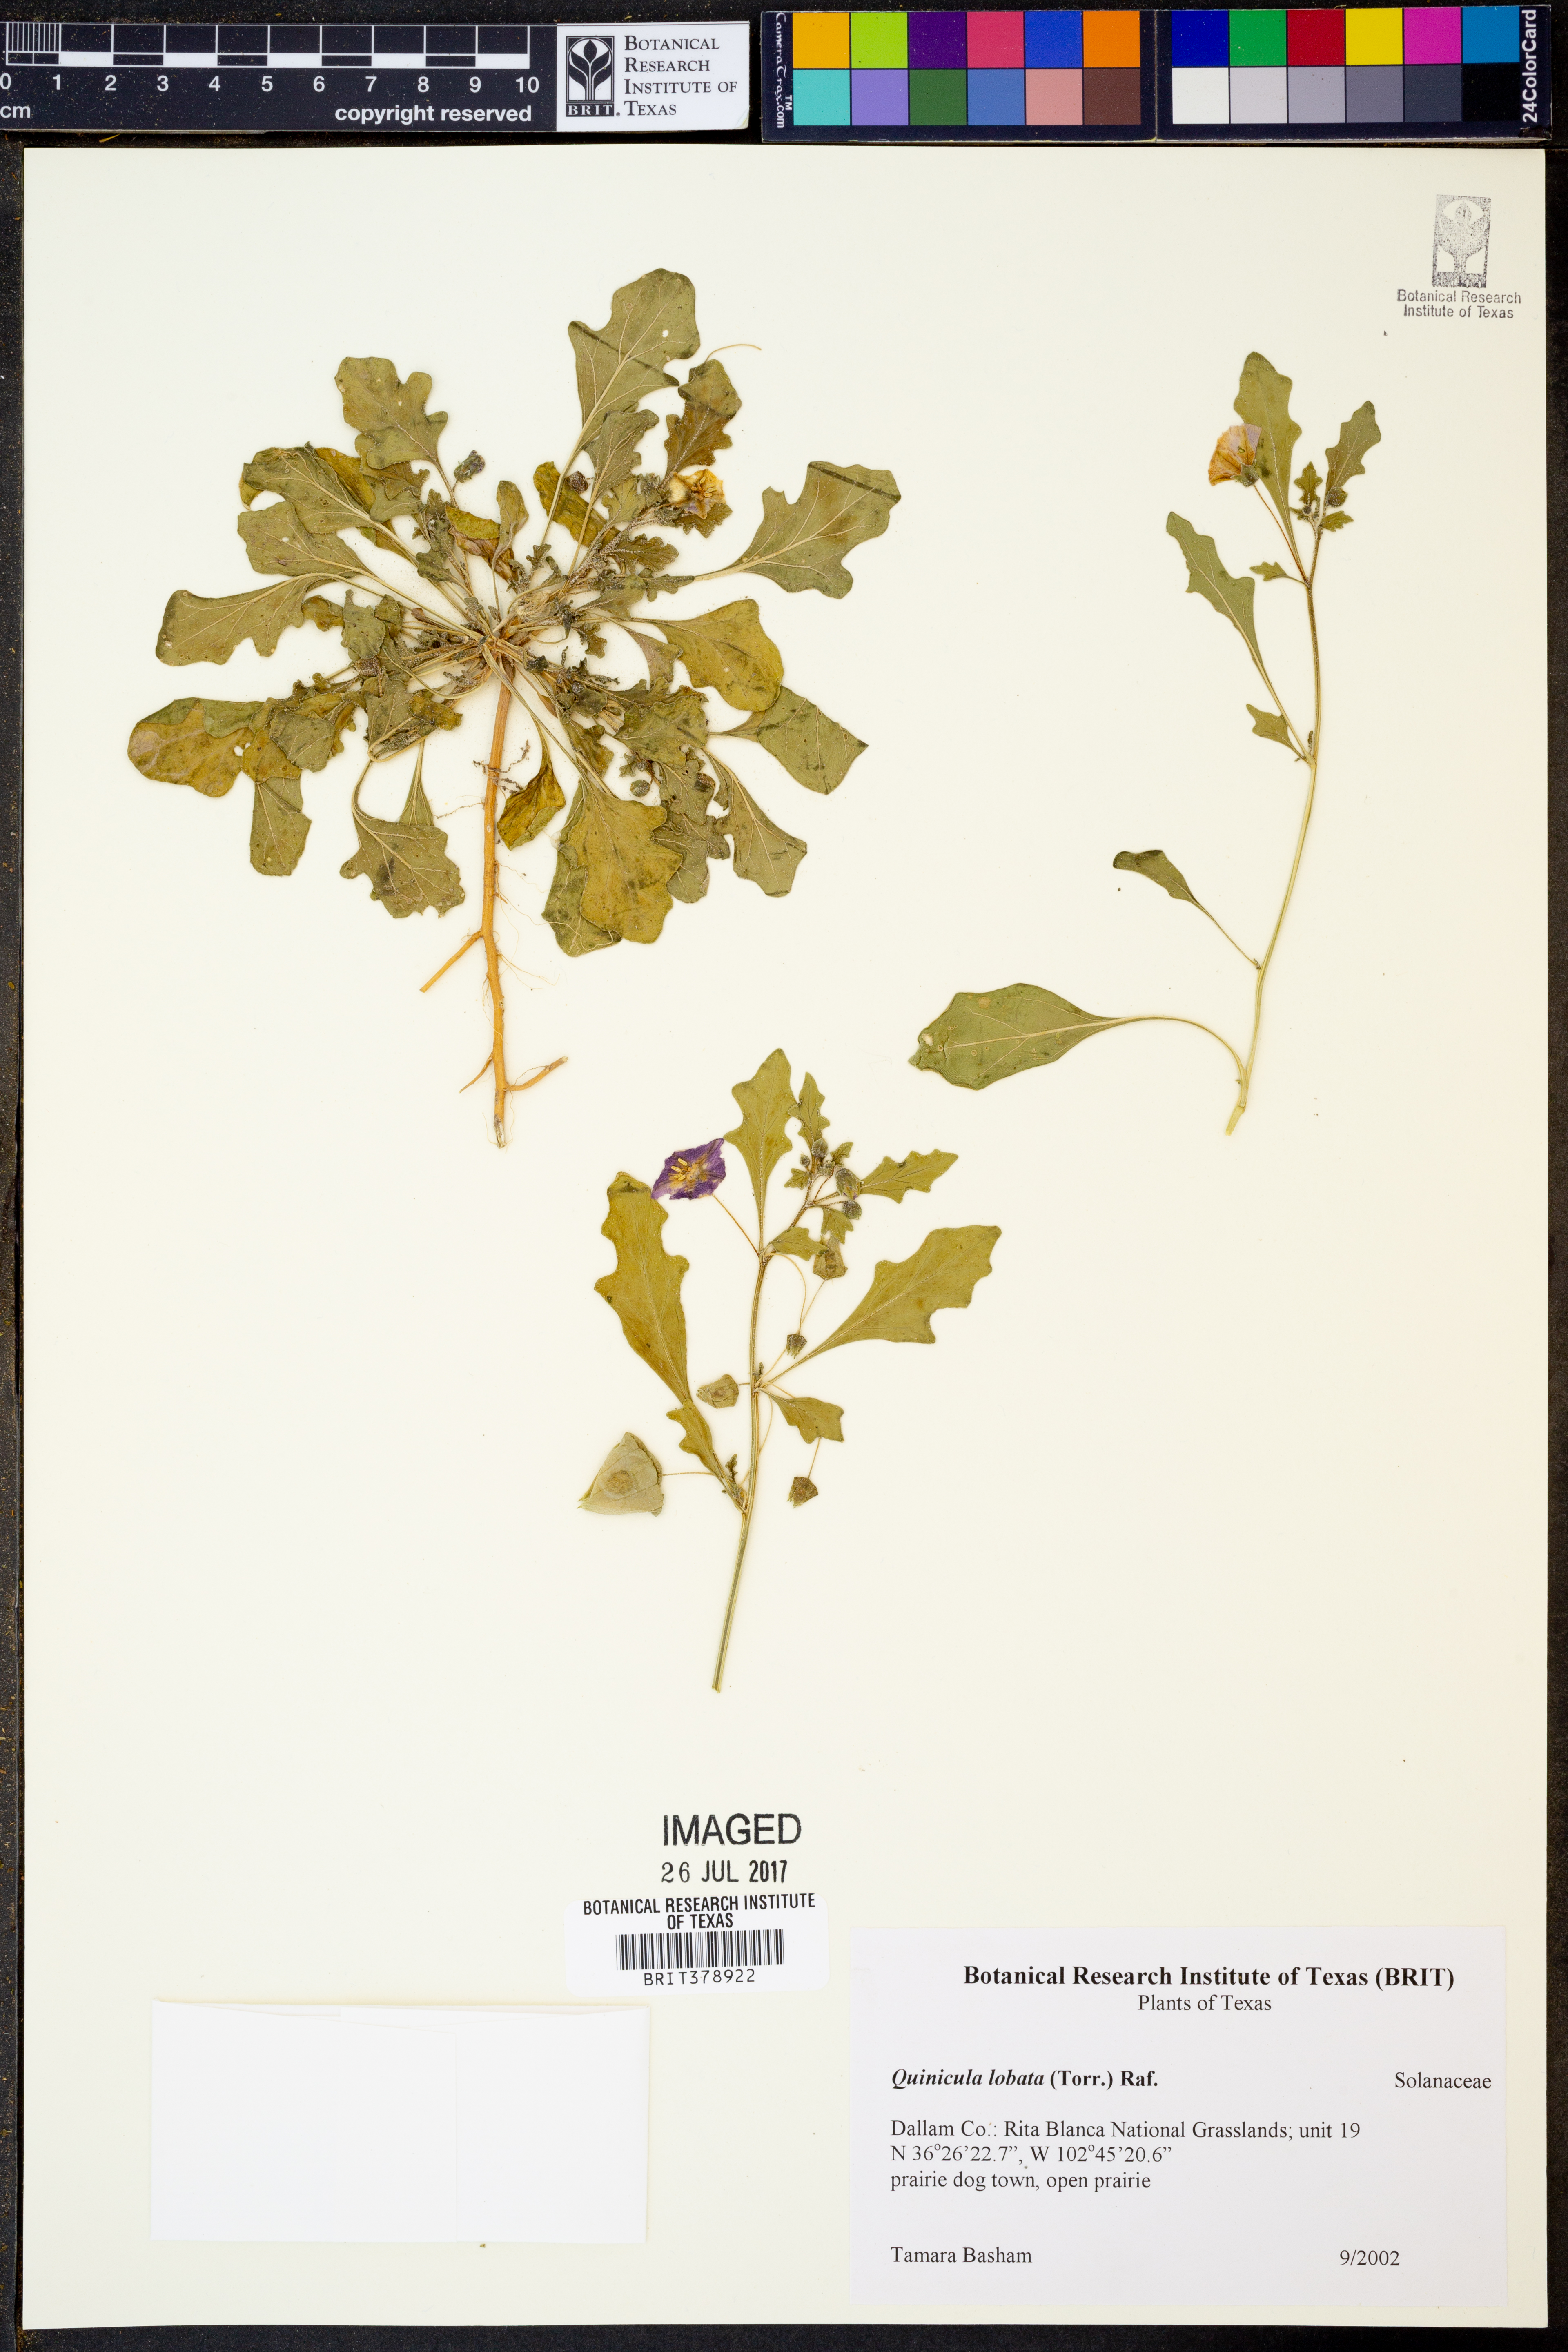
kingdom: Plantae
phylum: Tracheophyta
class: Magnoliopsida
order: Solanales
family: Solanaceae
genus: Quincula
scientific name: Quincula lobata
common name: Purple-ground-cherry
